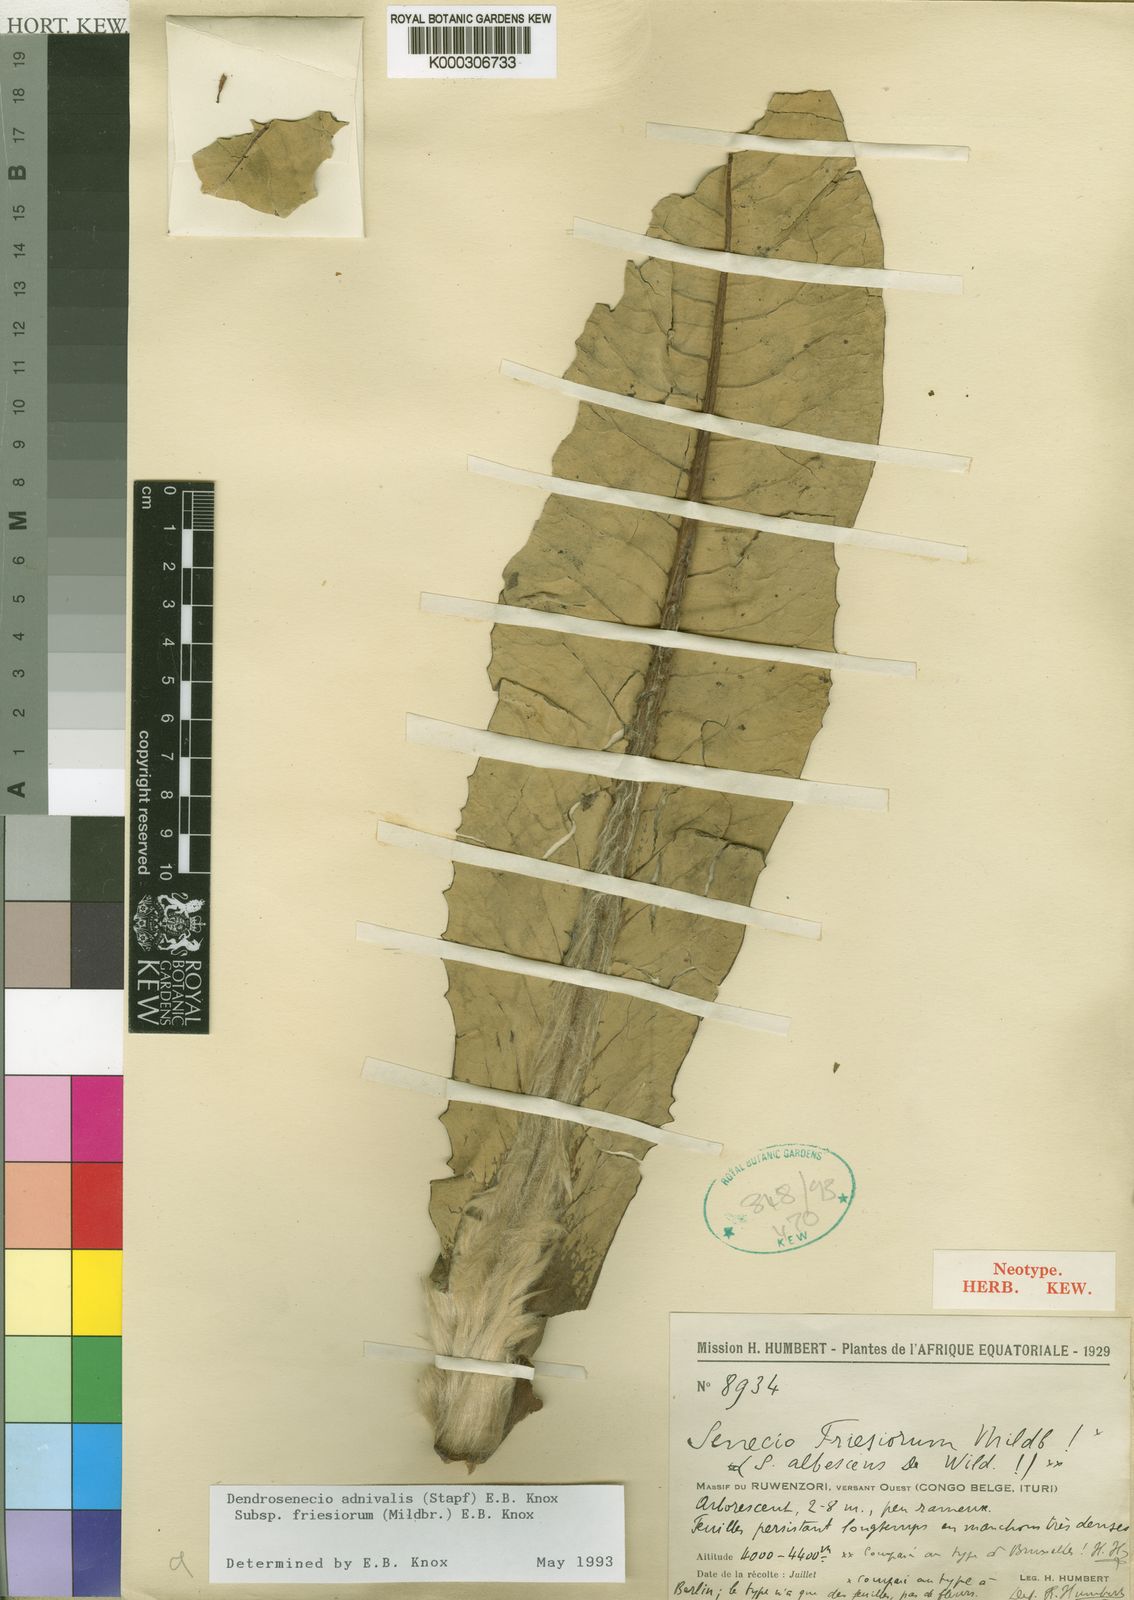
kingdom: Plantae
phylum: Tracheophyta
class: Magnoliopsida
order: Asterales
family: Asteraceae
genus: Dendrosenecio
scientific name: Dendrosenecio adnivalis
